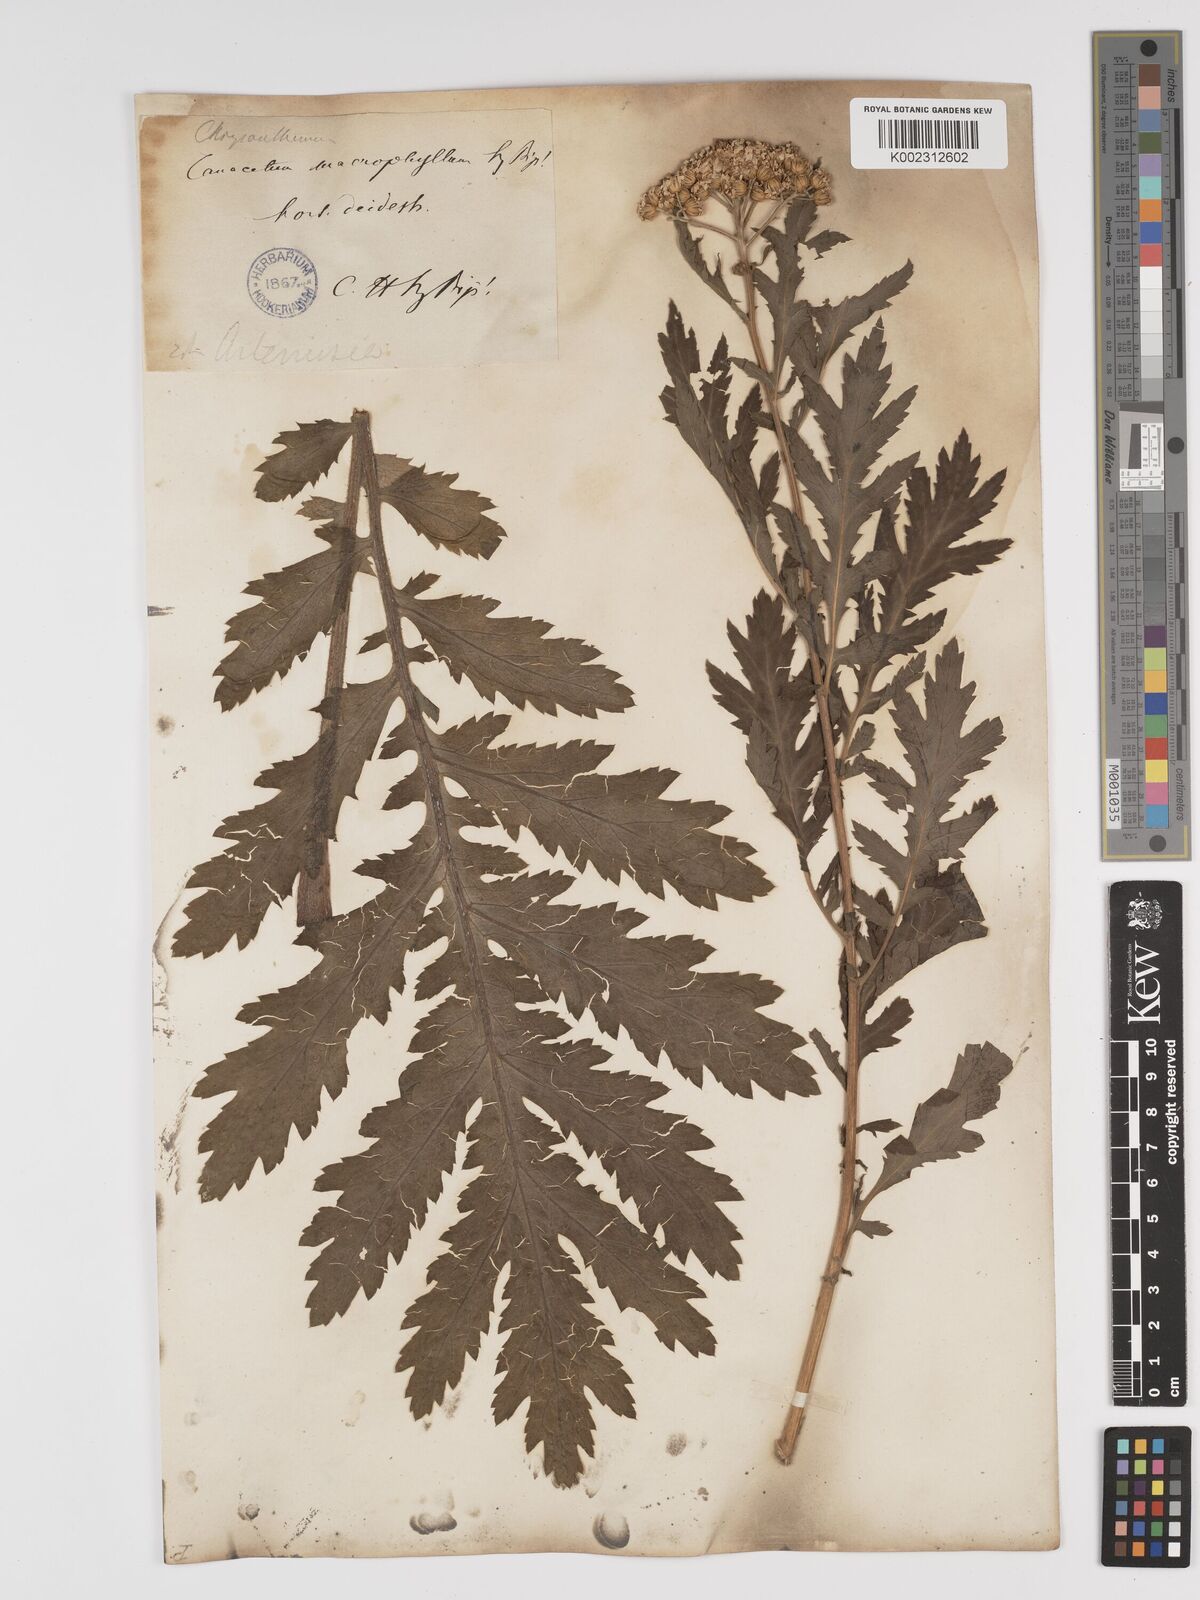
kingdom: Plantae
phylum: Tracheophyta
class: Magnoliopsida
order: Asterales
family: Asteraceae
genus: Tanacetum
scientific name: Tanacetum macrophyllum
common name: Rayed tansy
